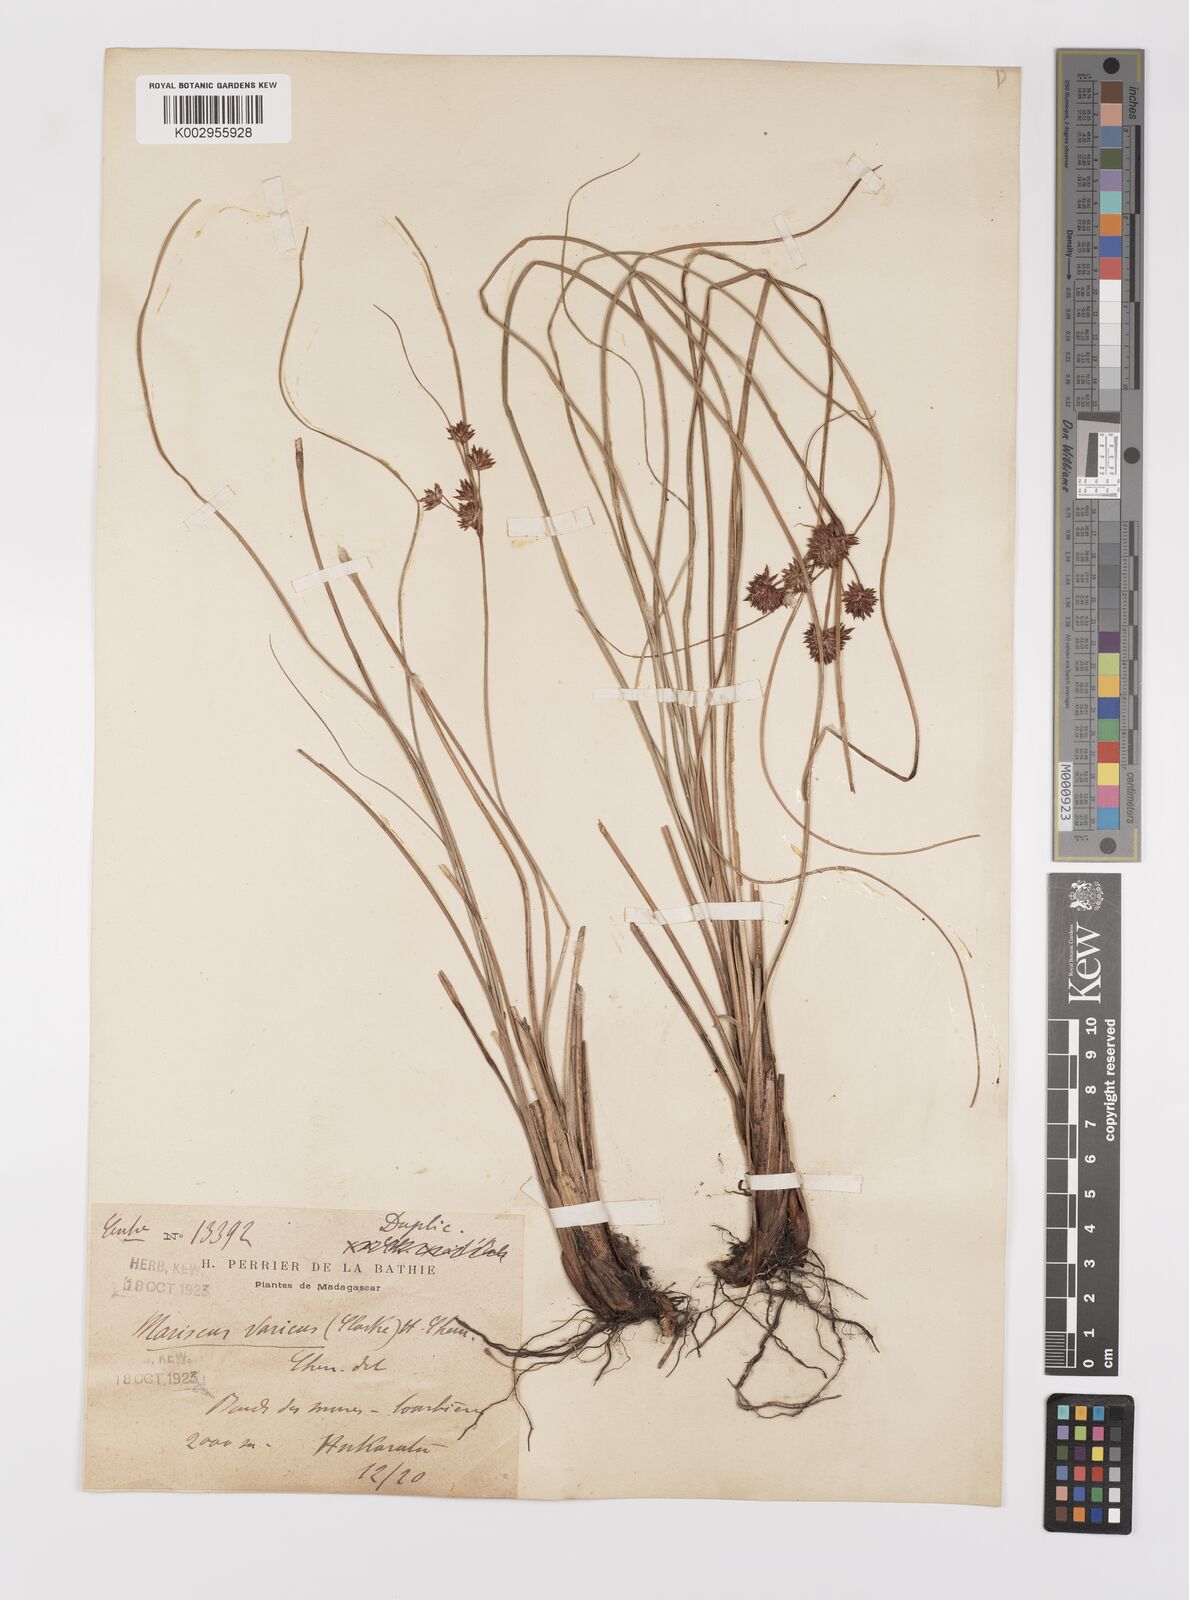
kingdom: Plantae
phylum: Tracheophyta
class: Liliopsida
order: Poales
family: Cyperaceae
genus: Cyperus
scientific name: Cyperus varicus
